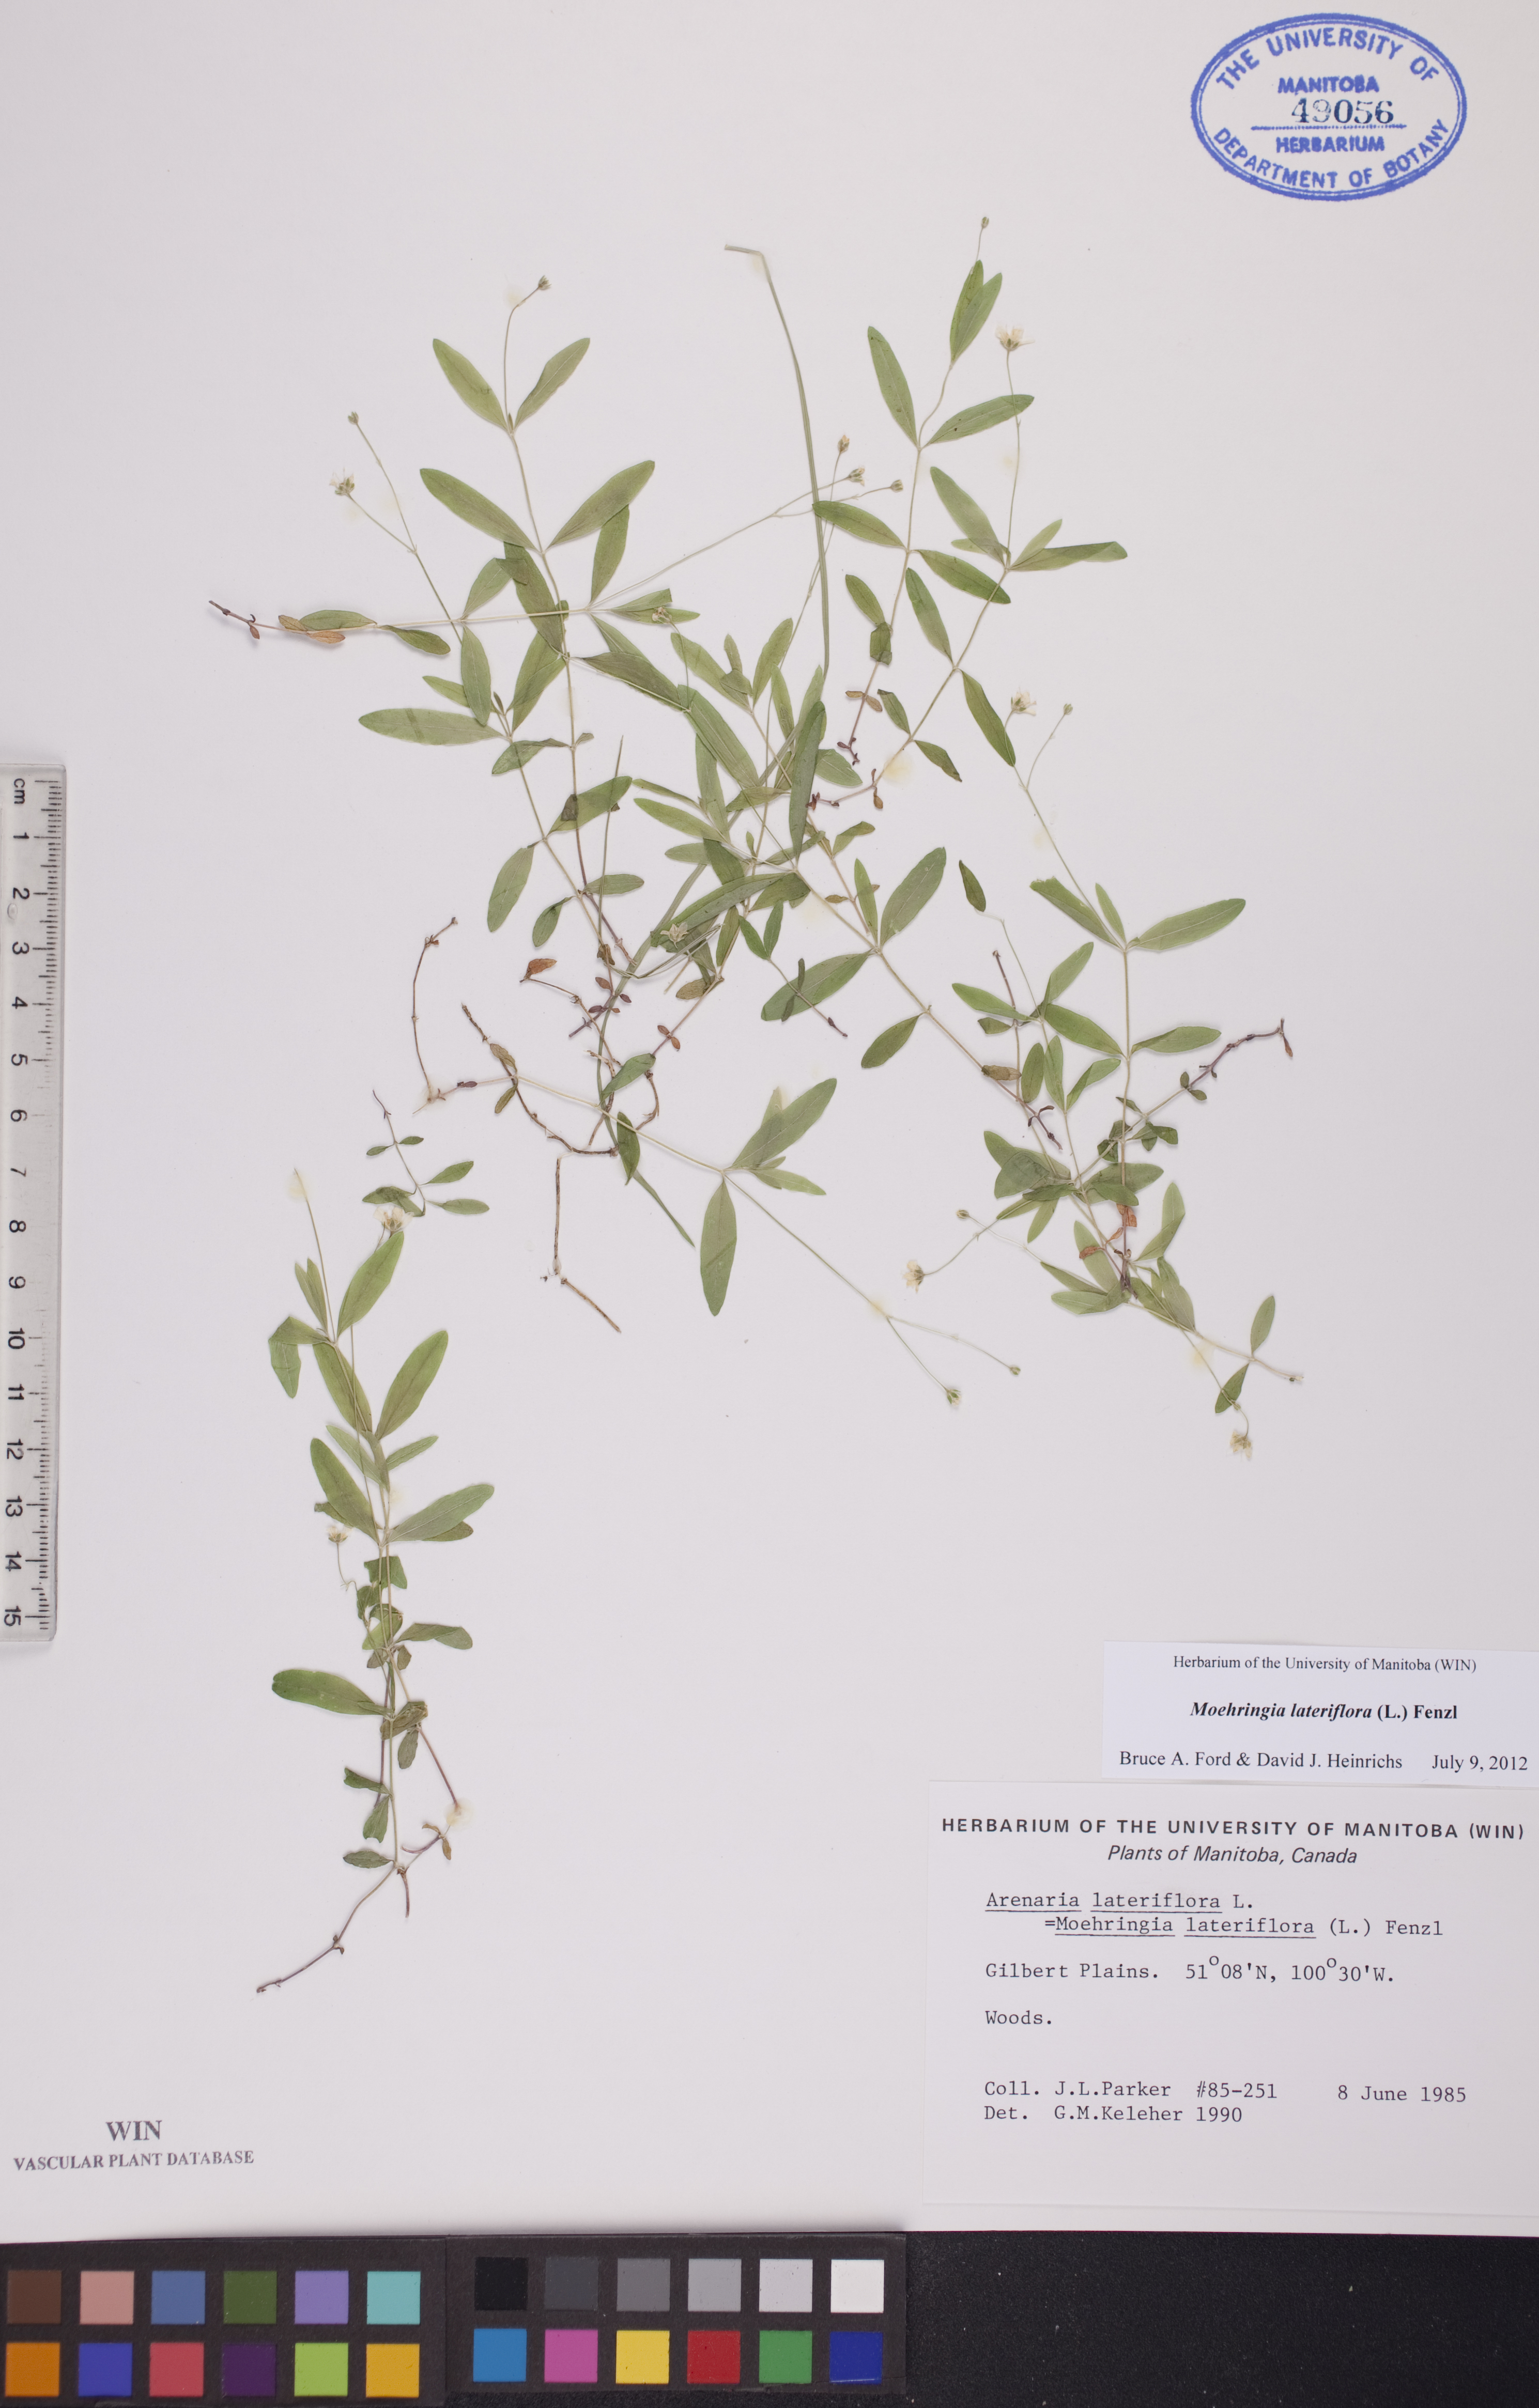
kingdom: Plantae
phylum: Tracheophyta
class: Magnoliopsida
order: Caryophyllales
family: Caryophyllaceae
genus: Moehringia
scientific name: Moehringia lateriflora
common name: Blunt-leaved sandwort
